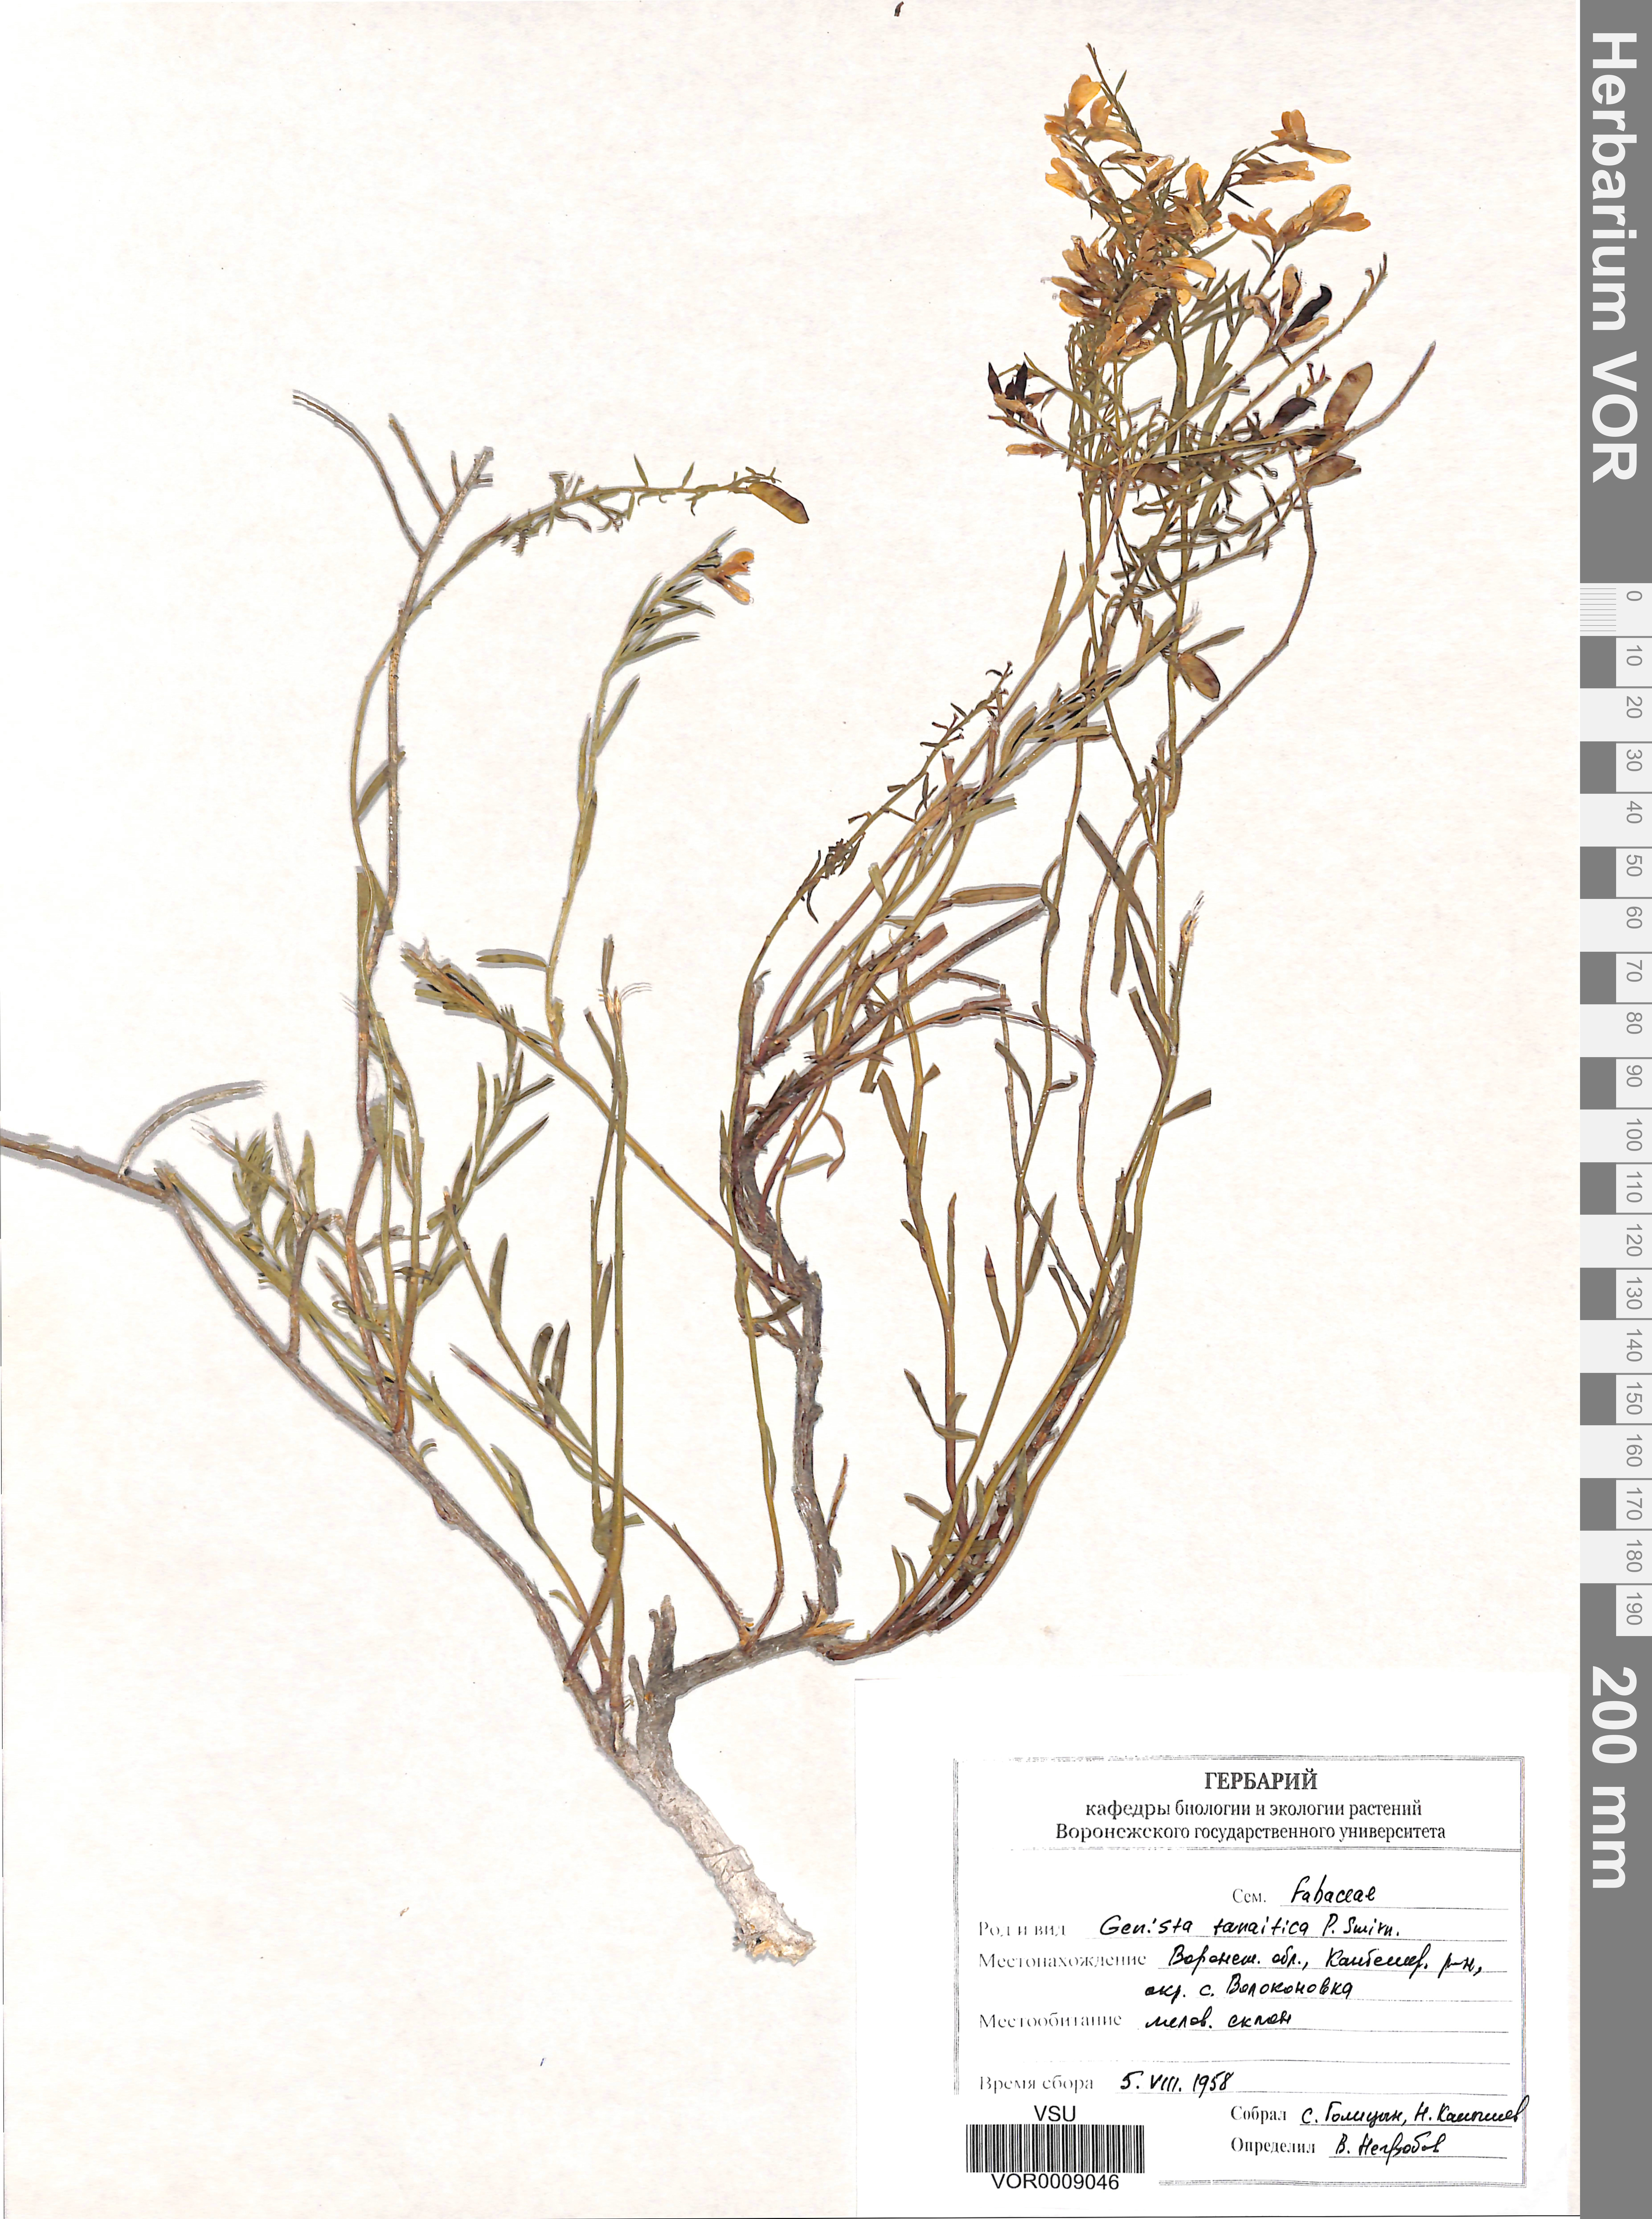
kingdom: Plantae
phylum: Tracheophyta
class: Magnoliopsida
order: Fabales
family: Fabaceae
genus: Genista
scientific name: Genista tinctoria
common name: Dyer's greenweed
